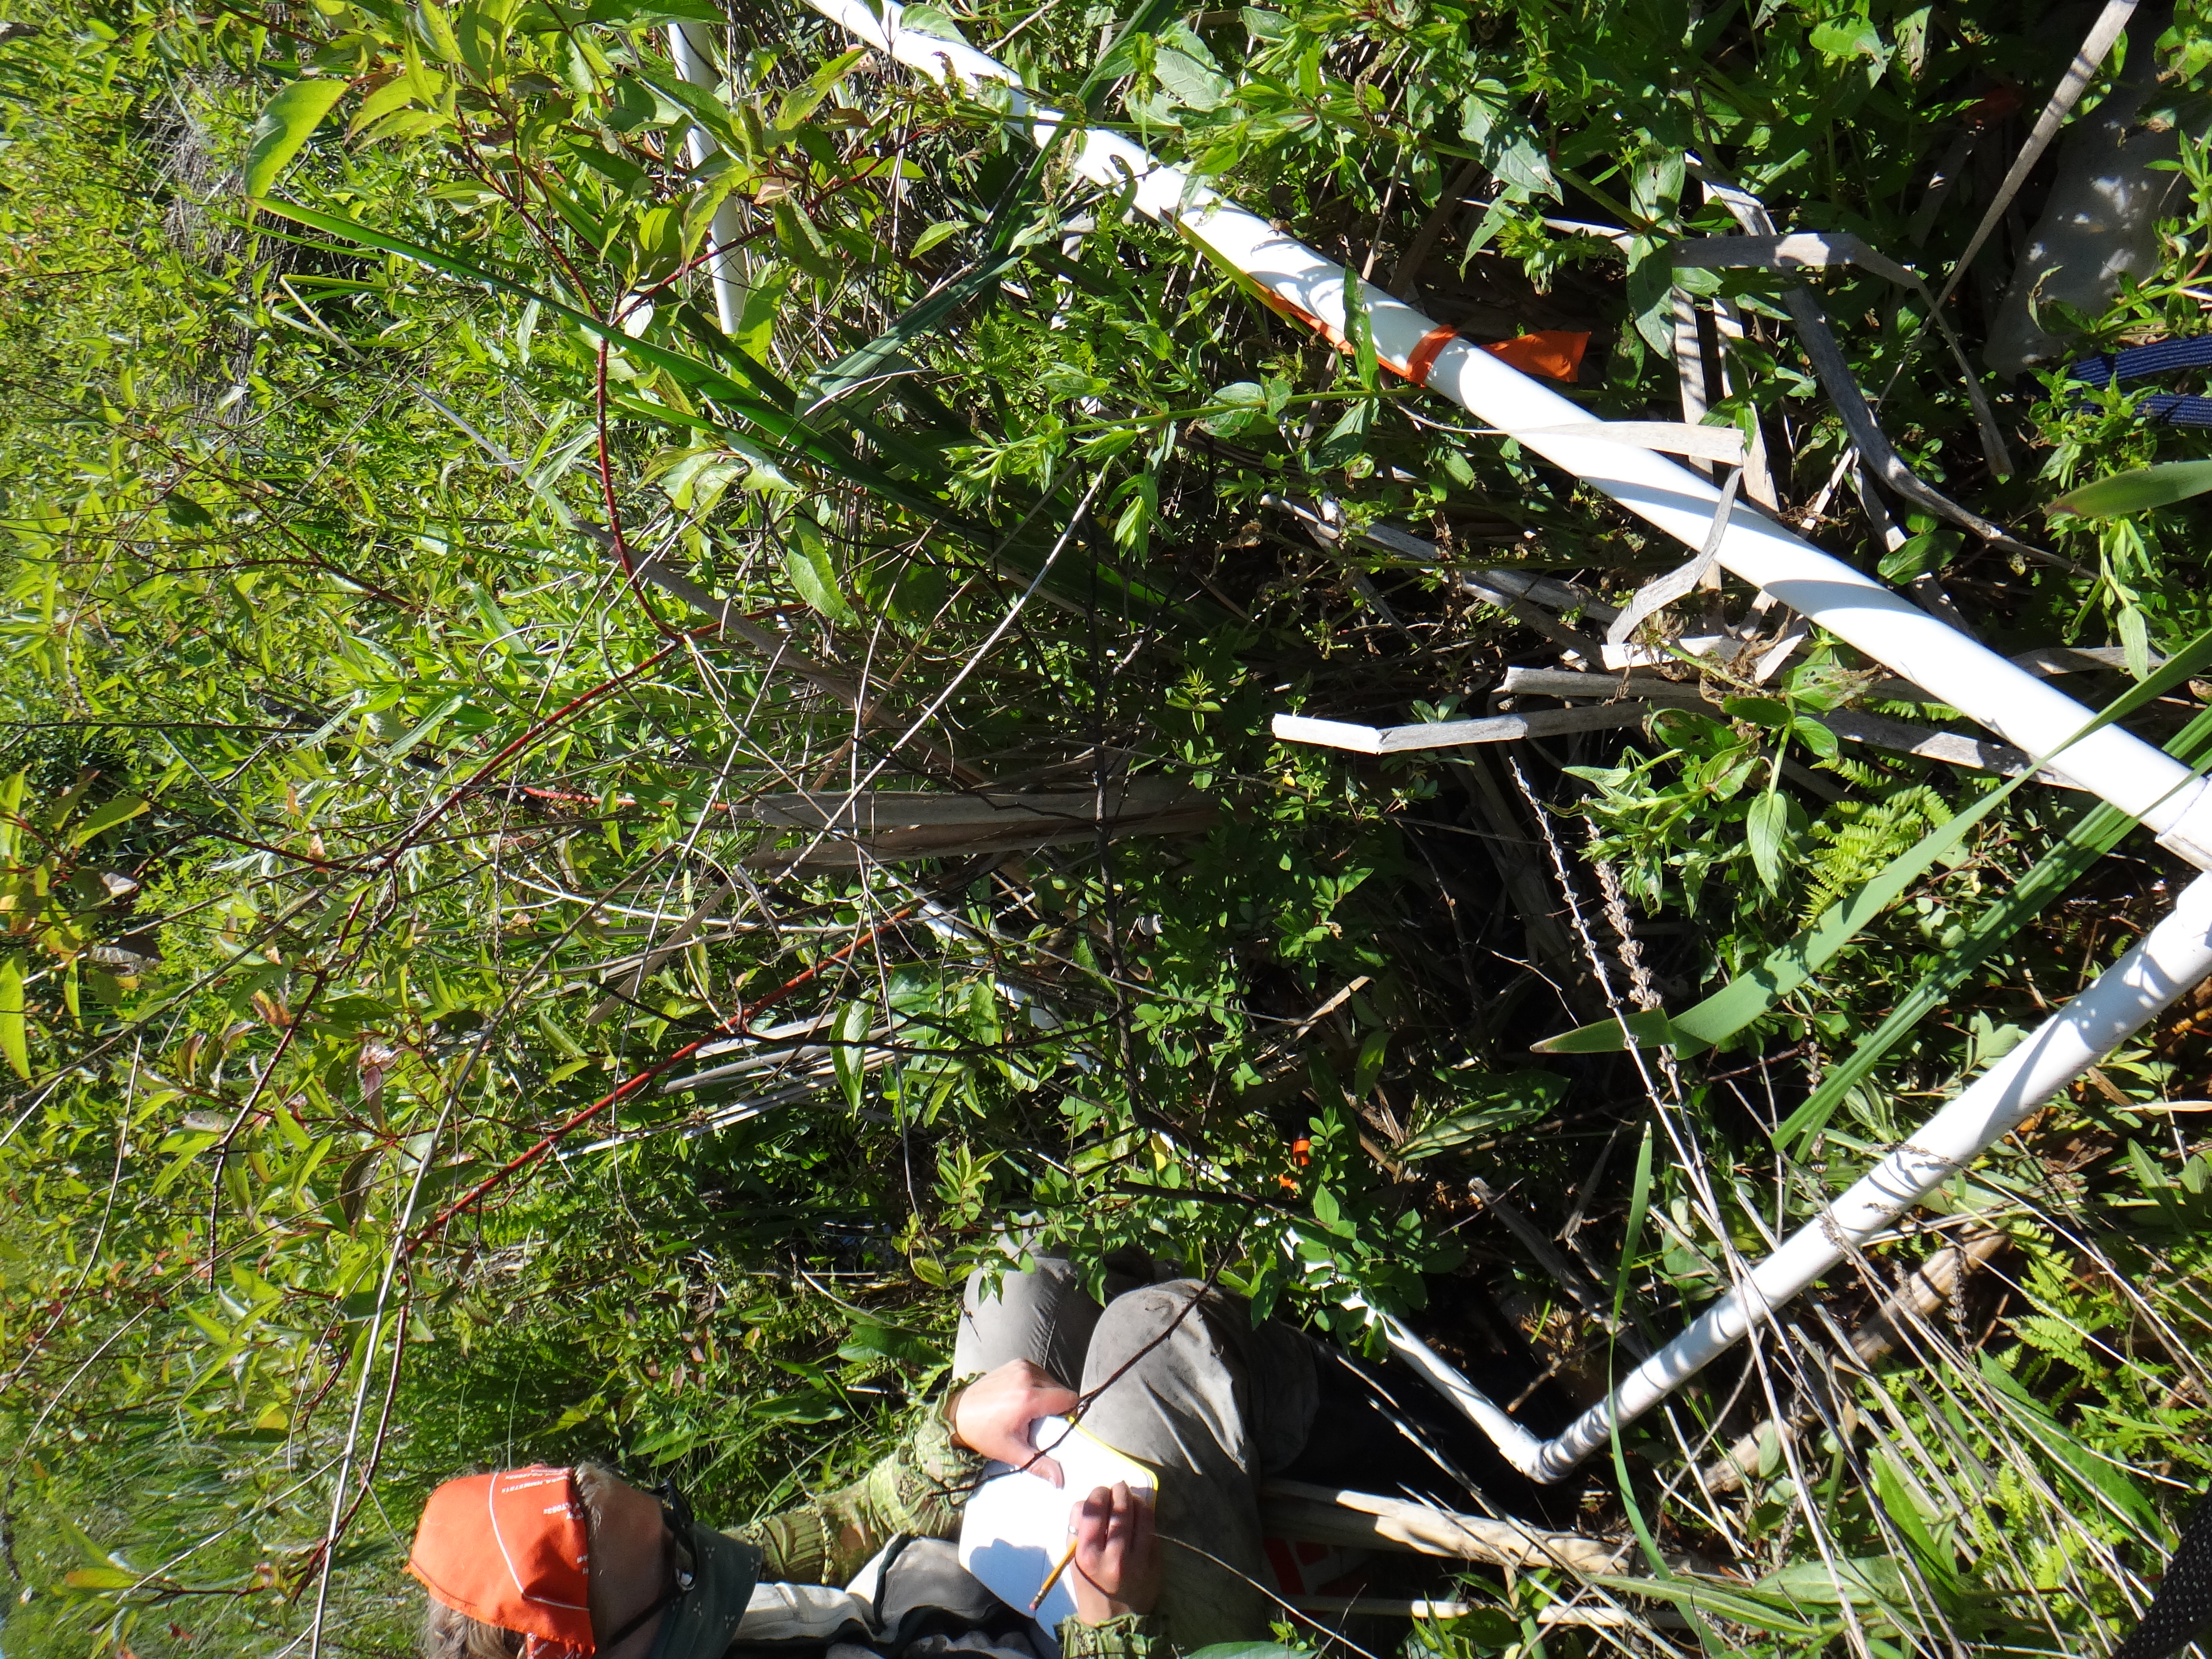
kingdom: Plantae
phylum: Tracheophyta
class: Magnoliopsida
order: Rosales
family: Rosaceae
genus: Rosa
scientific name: Rosa palustris
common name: Swamp rose
